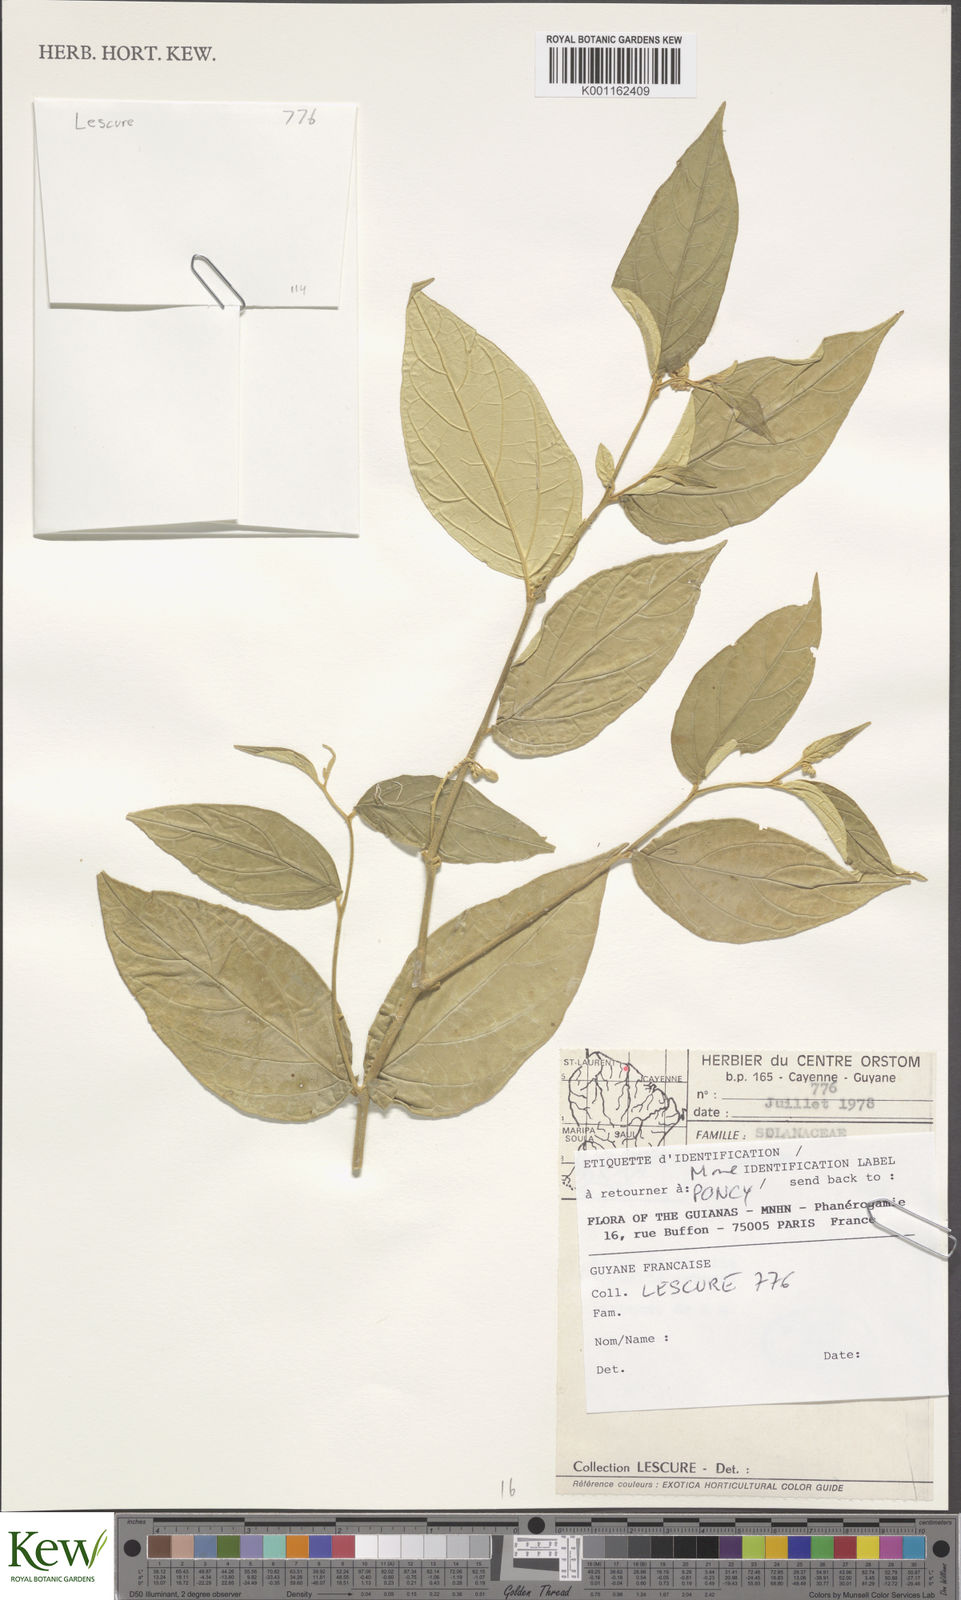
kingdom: Plantae
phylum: Tracheophyta
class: Magnoliopsida
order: Solanales
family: Solanaceae
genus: Solanum
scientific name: Solanum didymum
